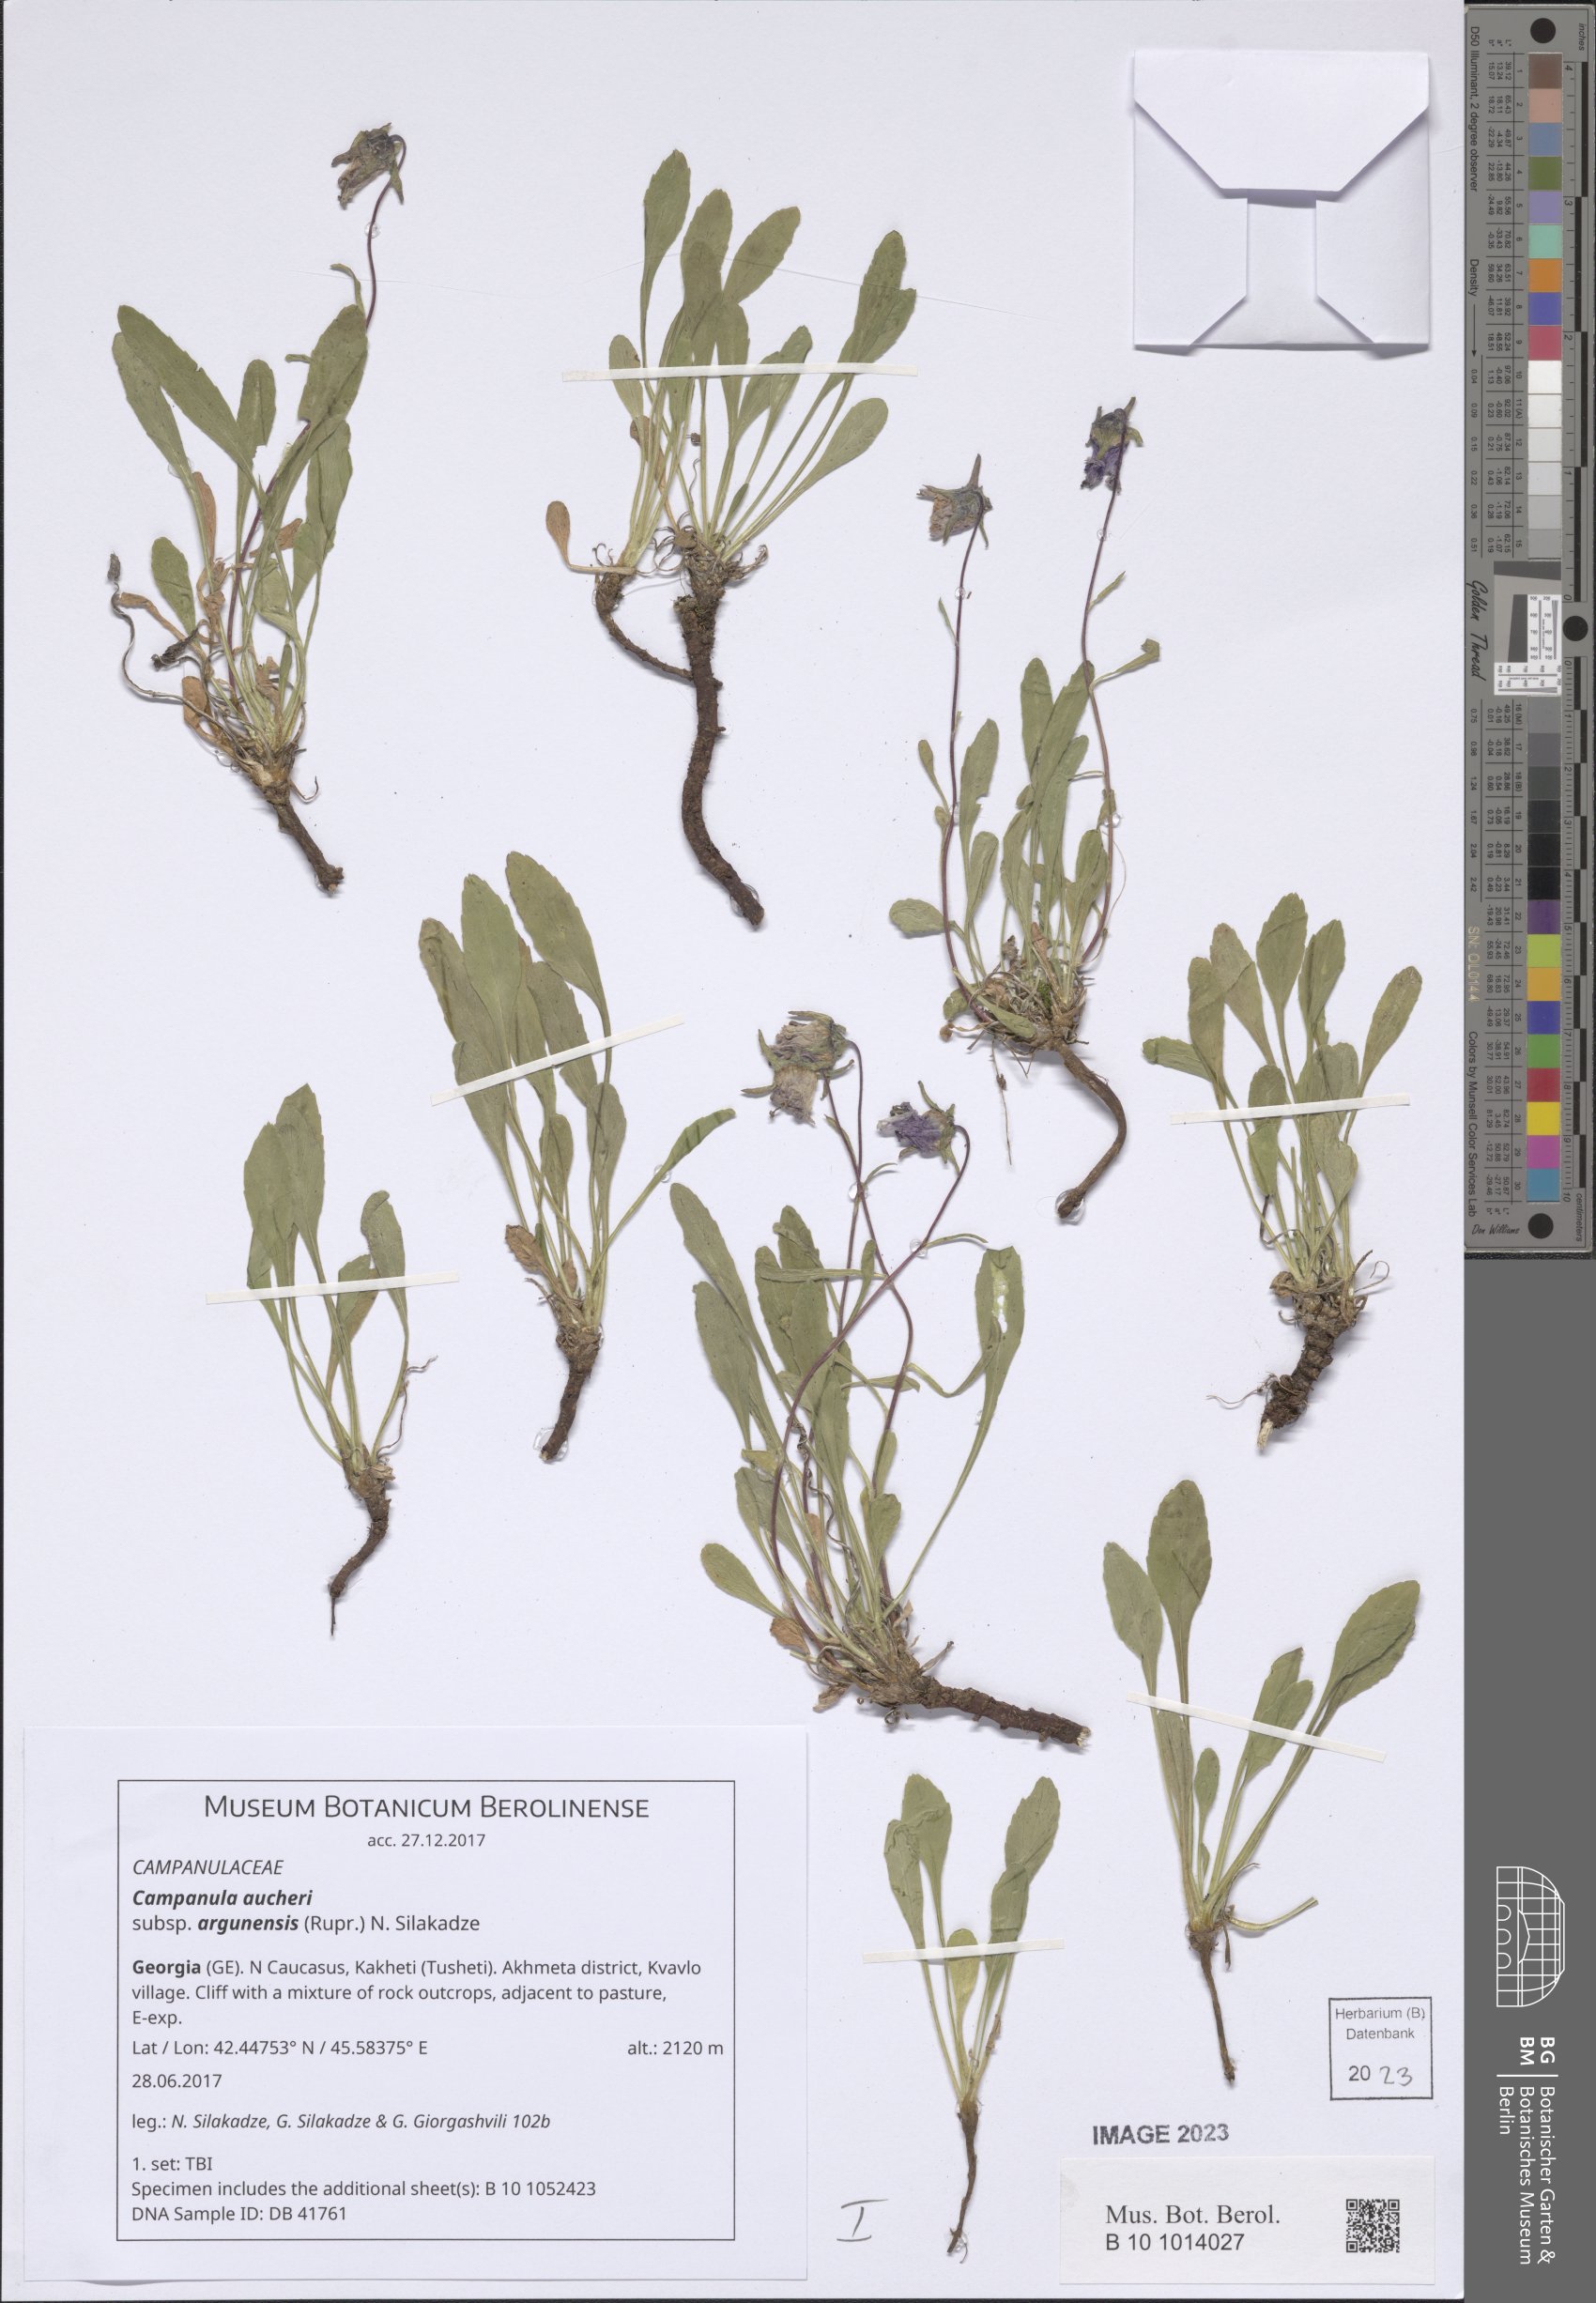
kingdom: Plantae
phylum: Tracheophyta
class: Magnoliopsida
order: Asterales
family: Campanulaceae
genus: Campanula
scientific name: Campanula saxifraga
